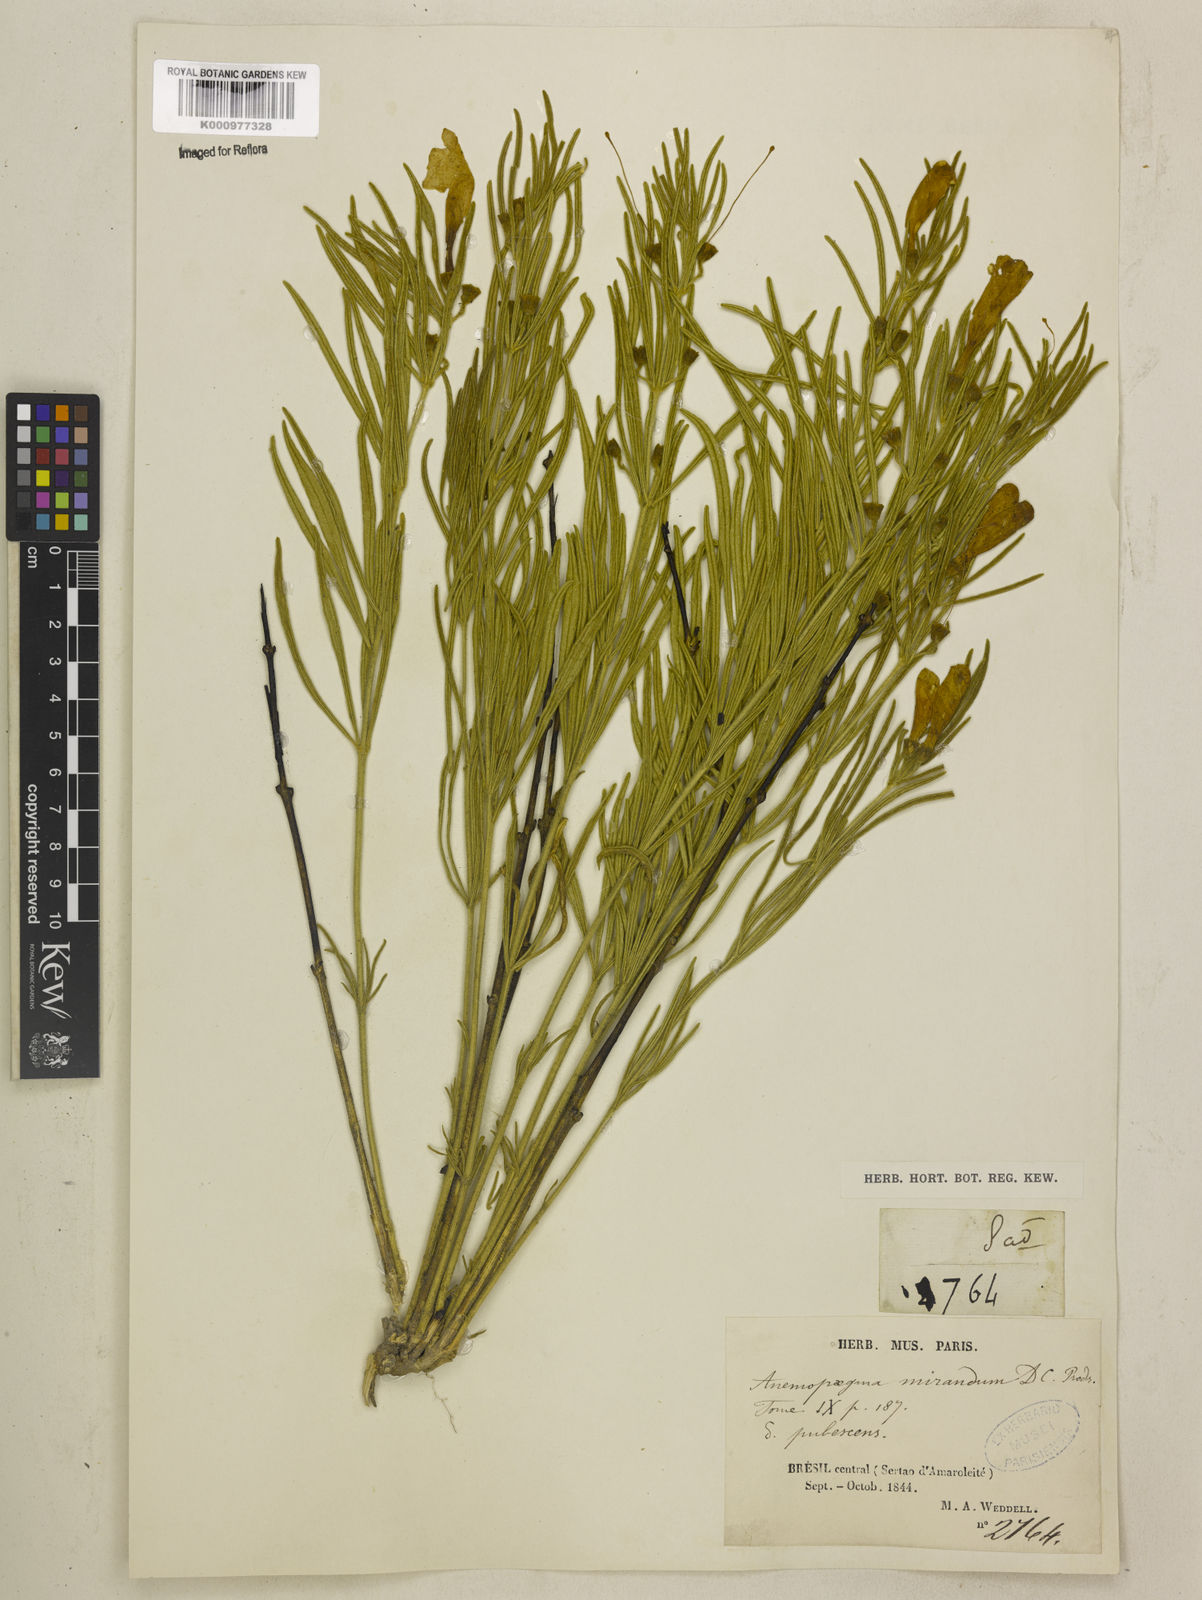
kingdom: Plantae
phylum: Tracheophyta
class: Magnoliopsida
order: Lamiales
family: Bignoniaceae
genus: Anemopaegma
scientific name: Anemopaegma arvense
